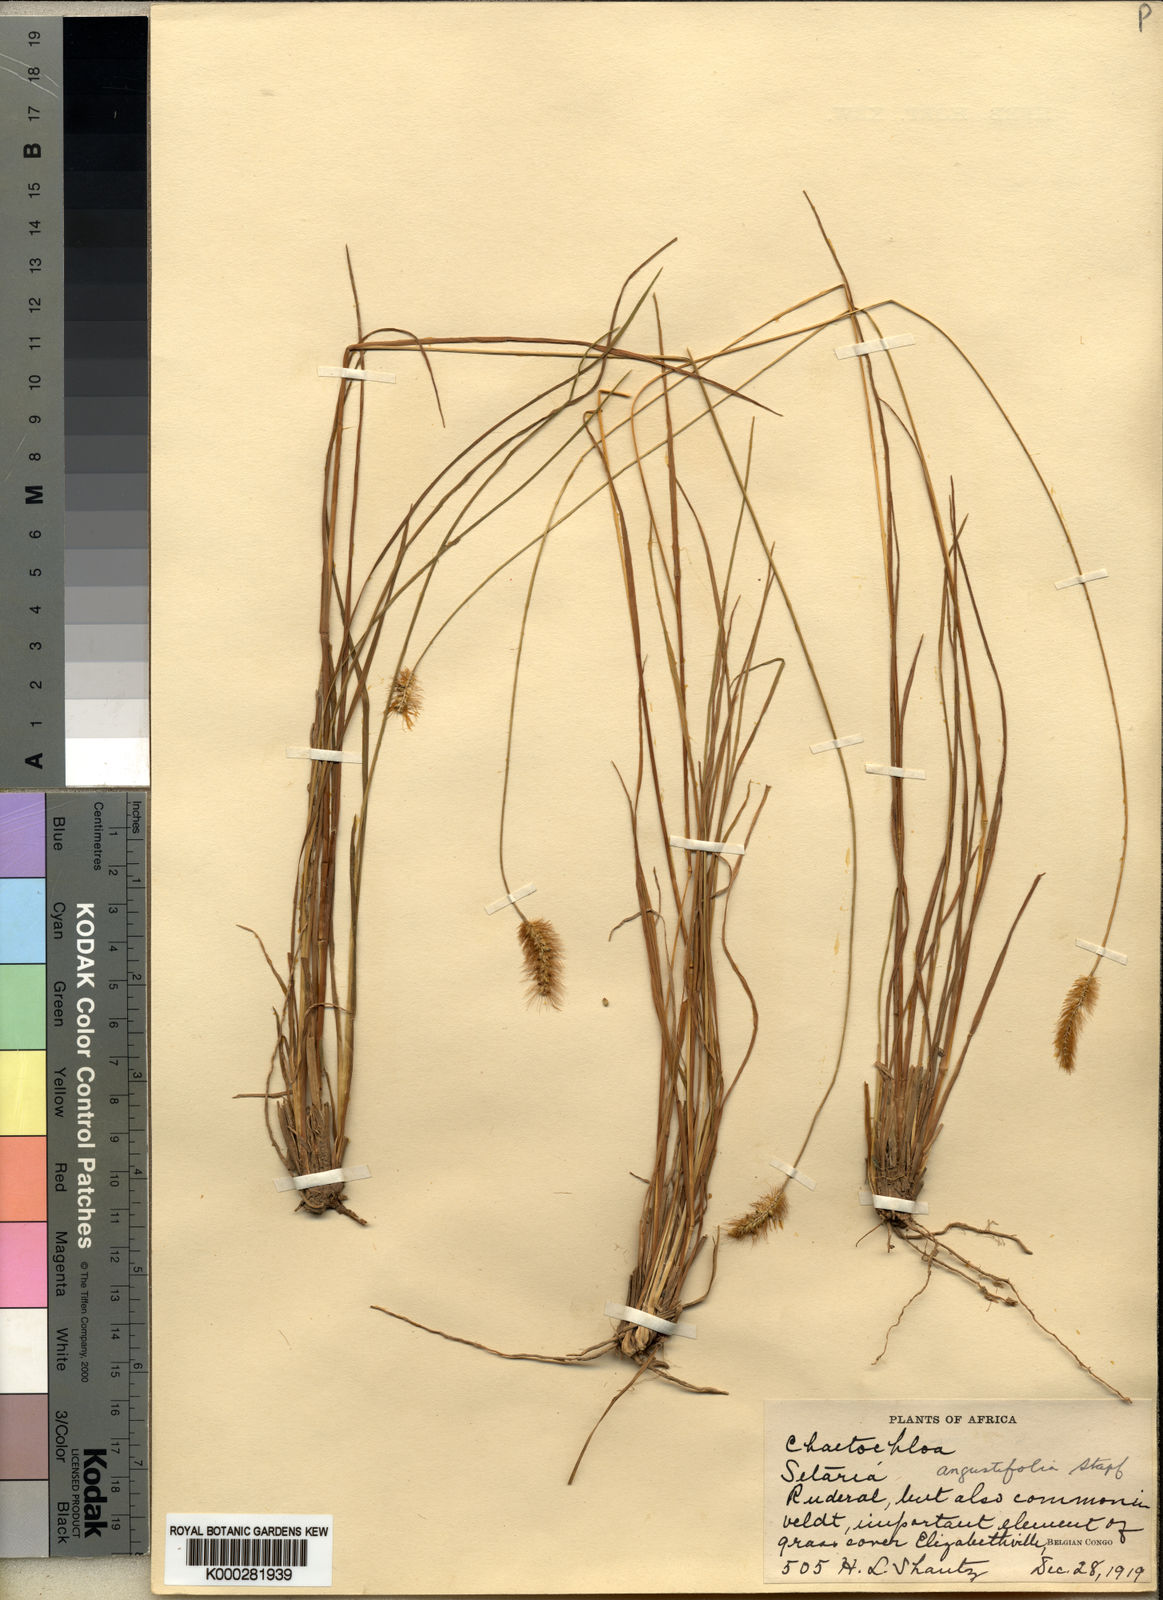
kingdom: Plantae
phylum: Tracheophyta
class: Liliopsida
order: Poales
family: Poaceae
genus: Setaria
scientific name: Setaria sphacelata
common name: African bristlegrass
